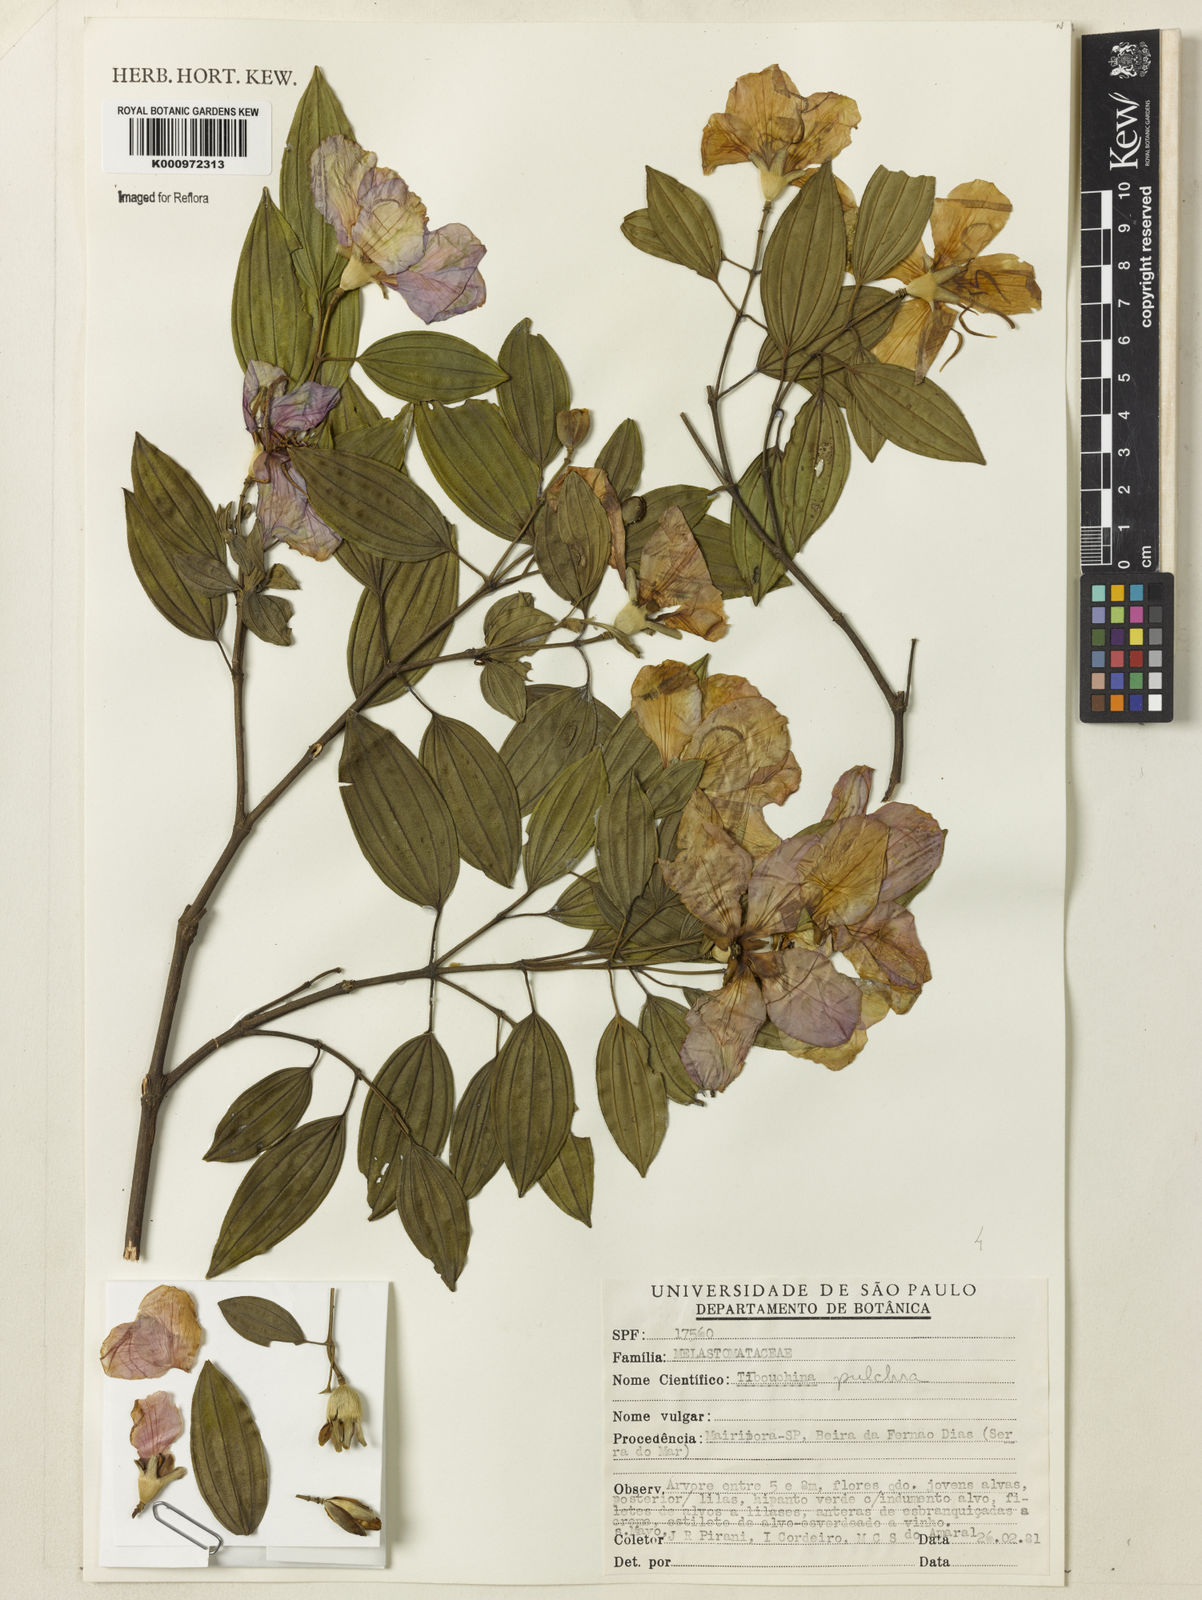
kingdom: Plantae
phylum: Tracheophyta
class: Magnoliopsida
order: Myrtales
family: Melastomataceae
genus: Pleroma
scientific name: Pleroma raddianum
